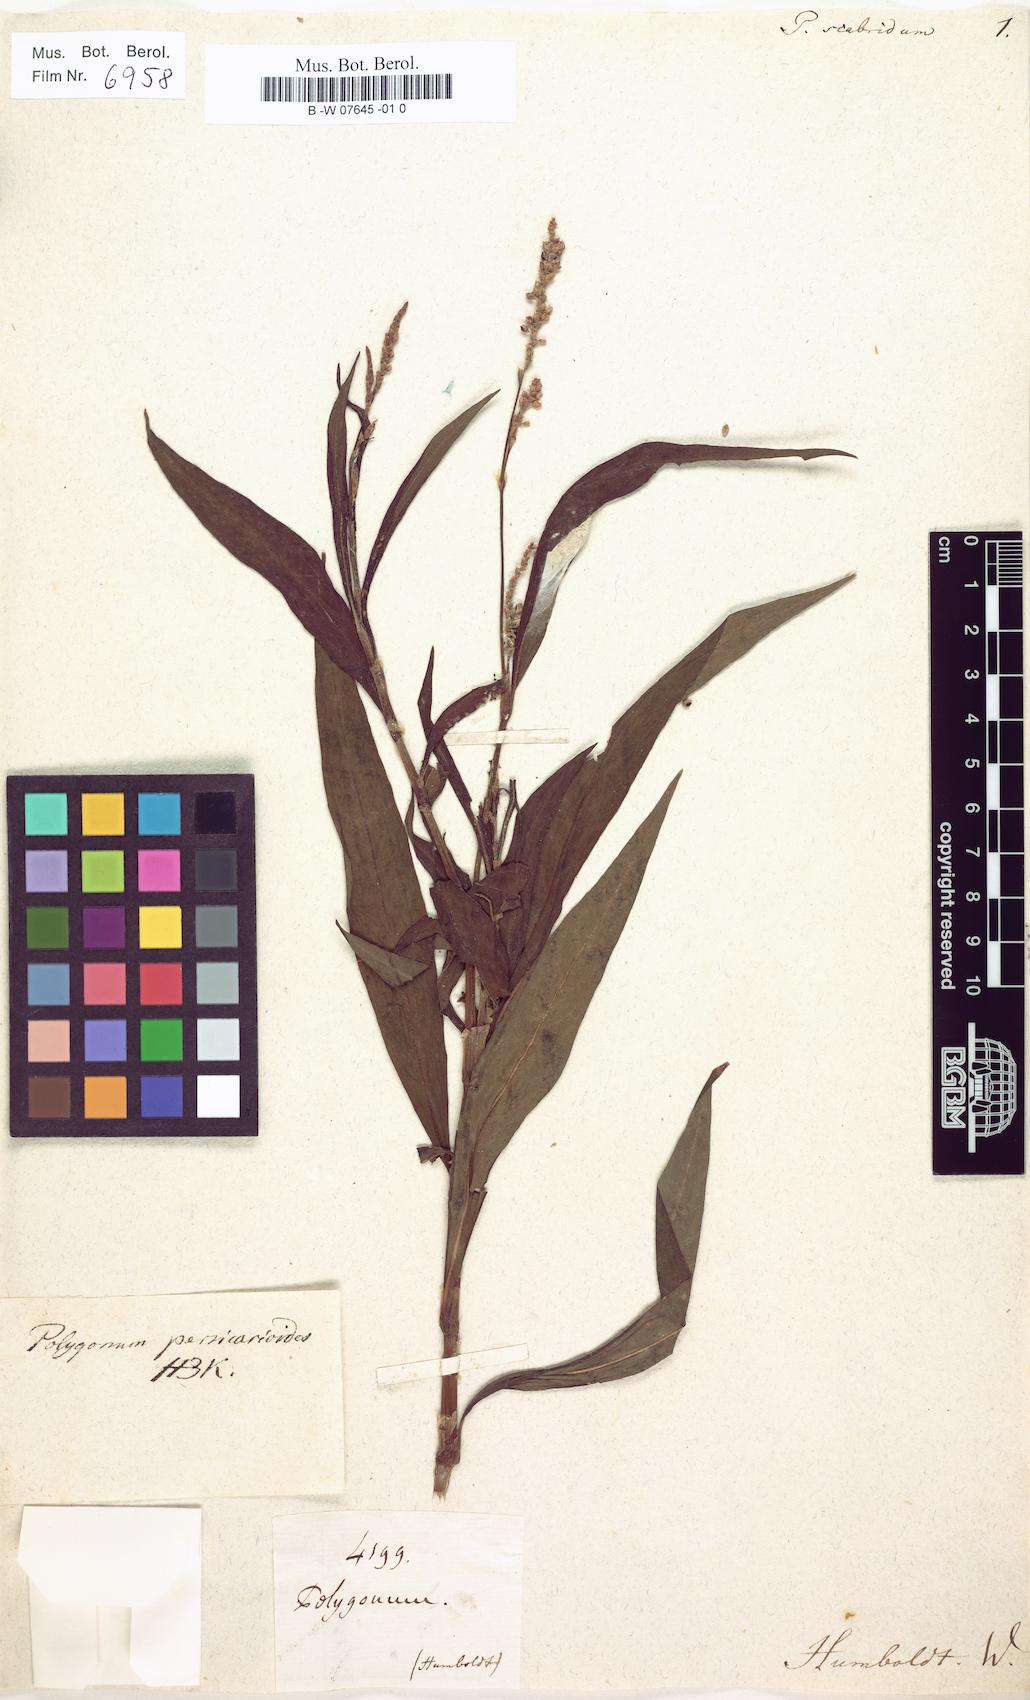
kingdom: Plantae
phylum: Tracheophyta
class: Magnoliopsida
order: Caryophyllales
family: Polygonaceae
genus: Persicaria
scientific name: Persicaria hydropiperoides
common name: Swamp smartweed
